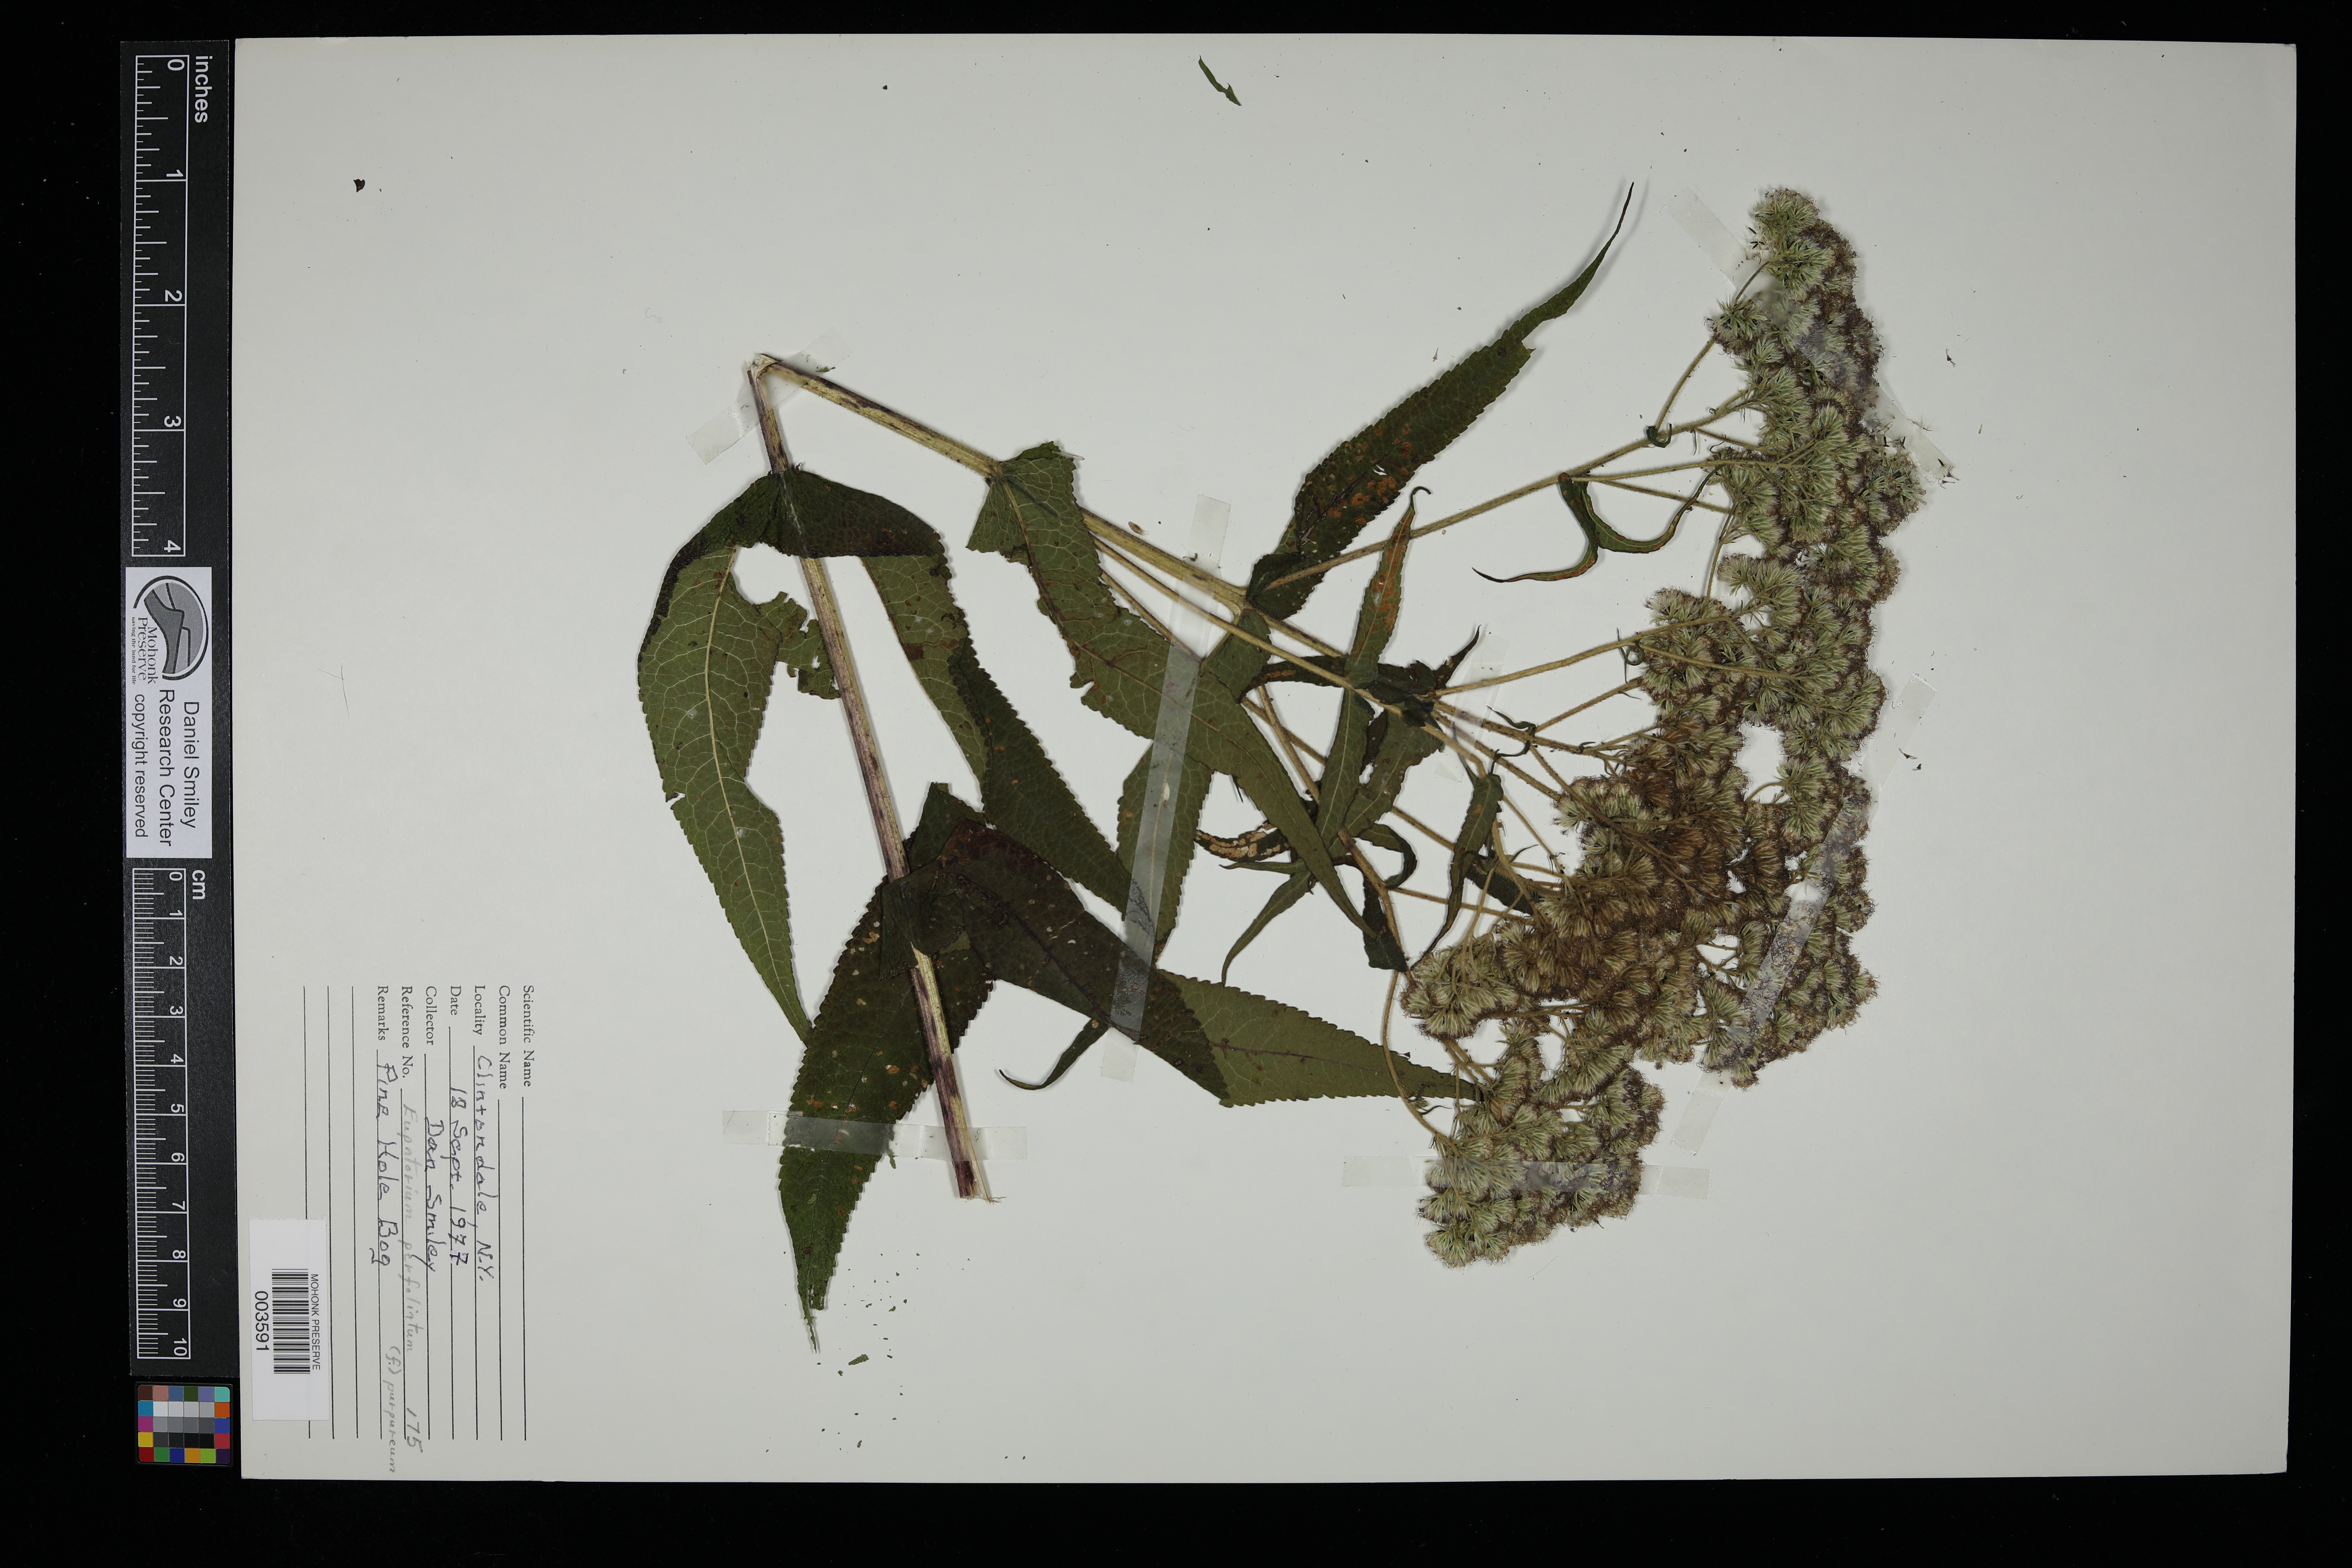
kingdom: Plantae
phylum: Tracheophyta
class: Magnoliopsida
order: Asterales
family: Asteraceae
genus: Eupatorium
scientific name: Eupatorium perfoliatum
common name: Boneset
